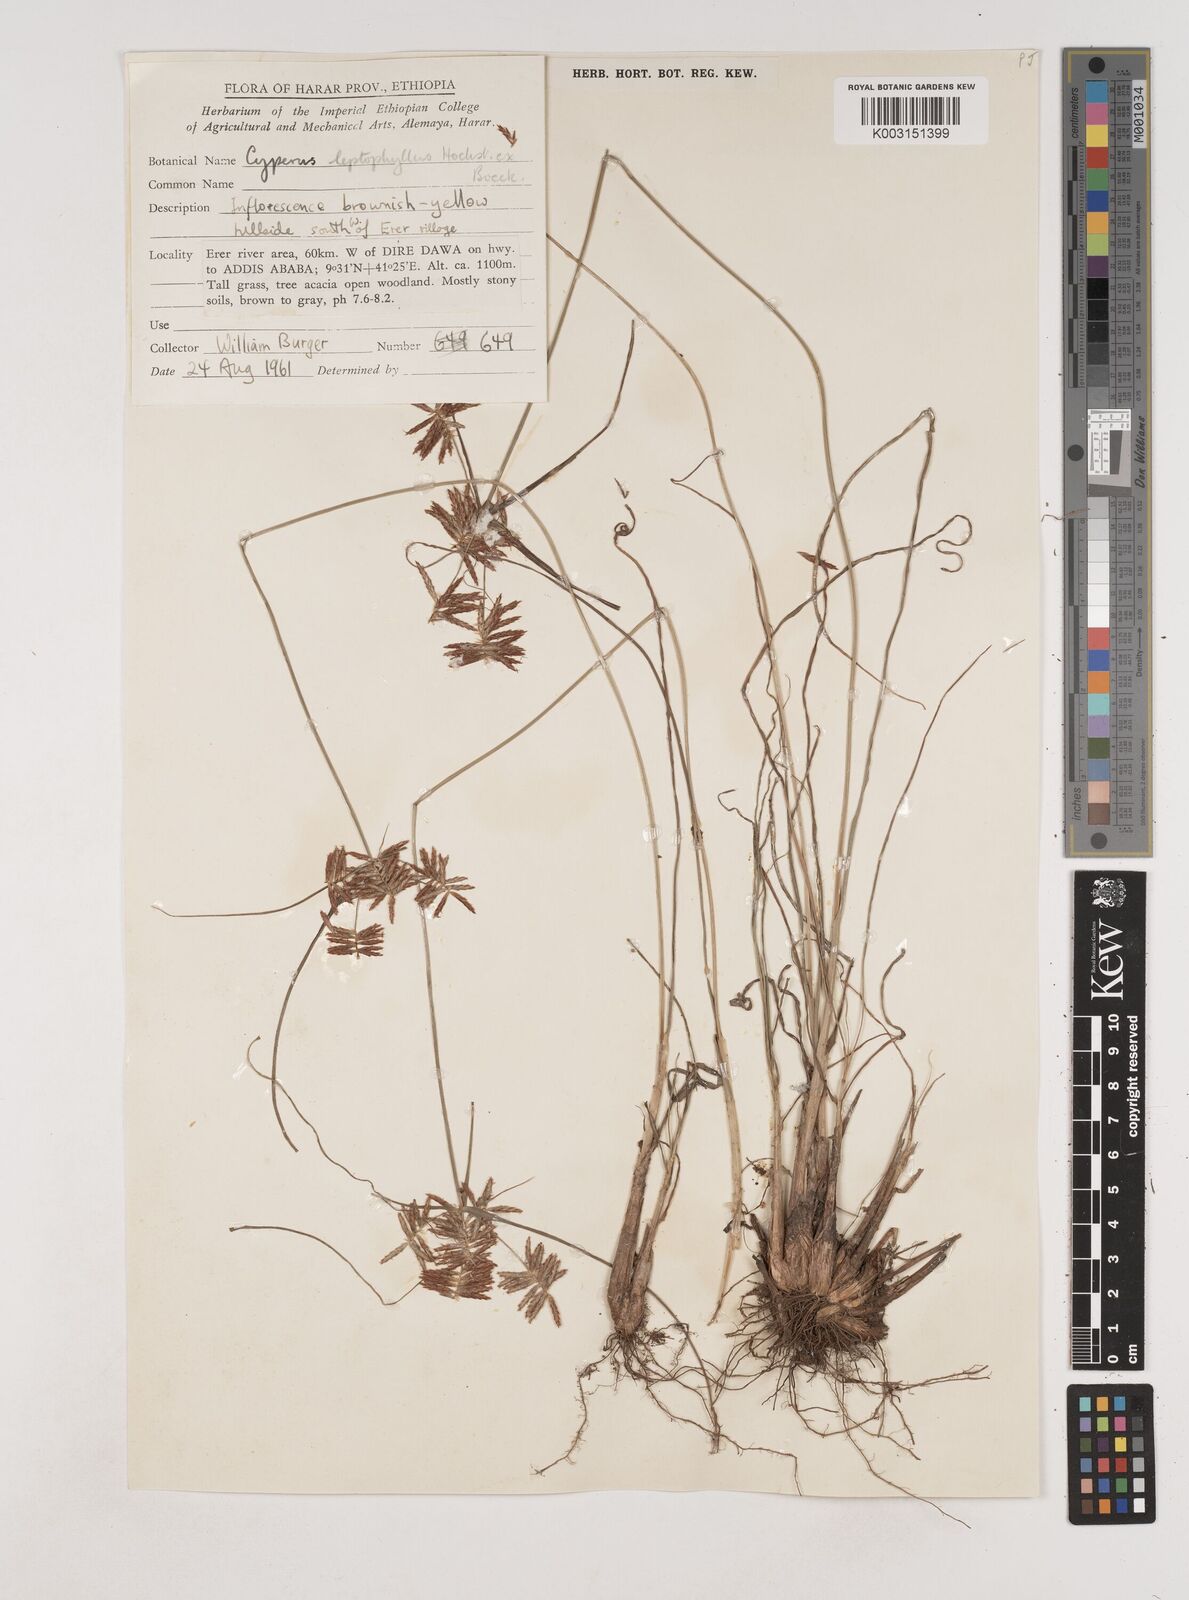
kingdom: Plantae
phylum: Tracheophyta
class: Liliopsida
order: Poales
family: Cyperaceae
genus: Cyperus
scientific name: Cyperus amauropus
